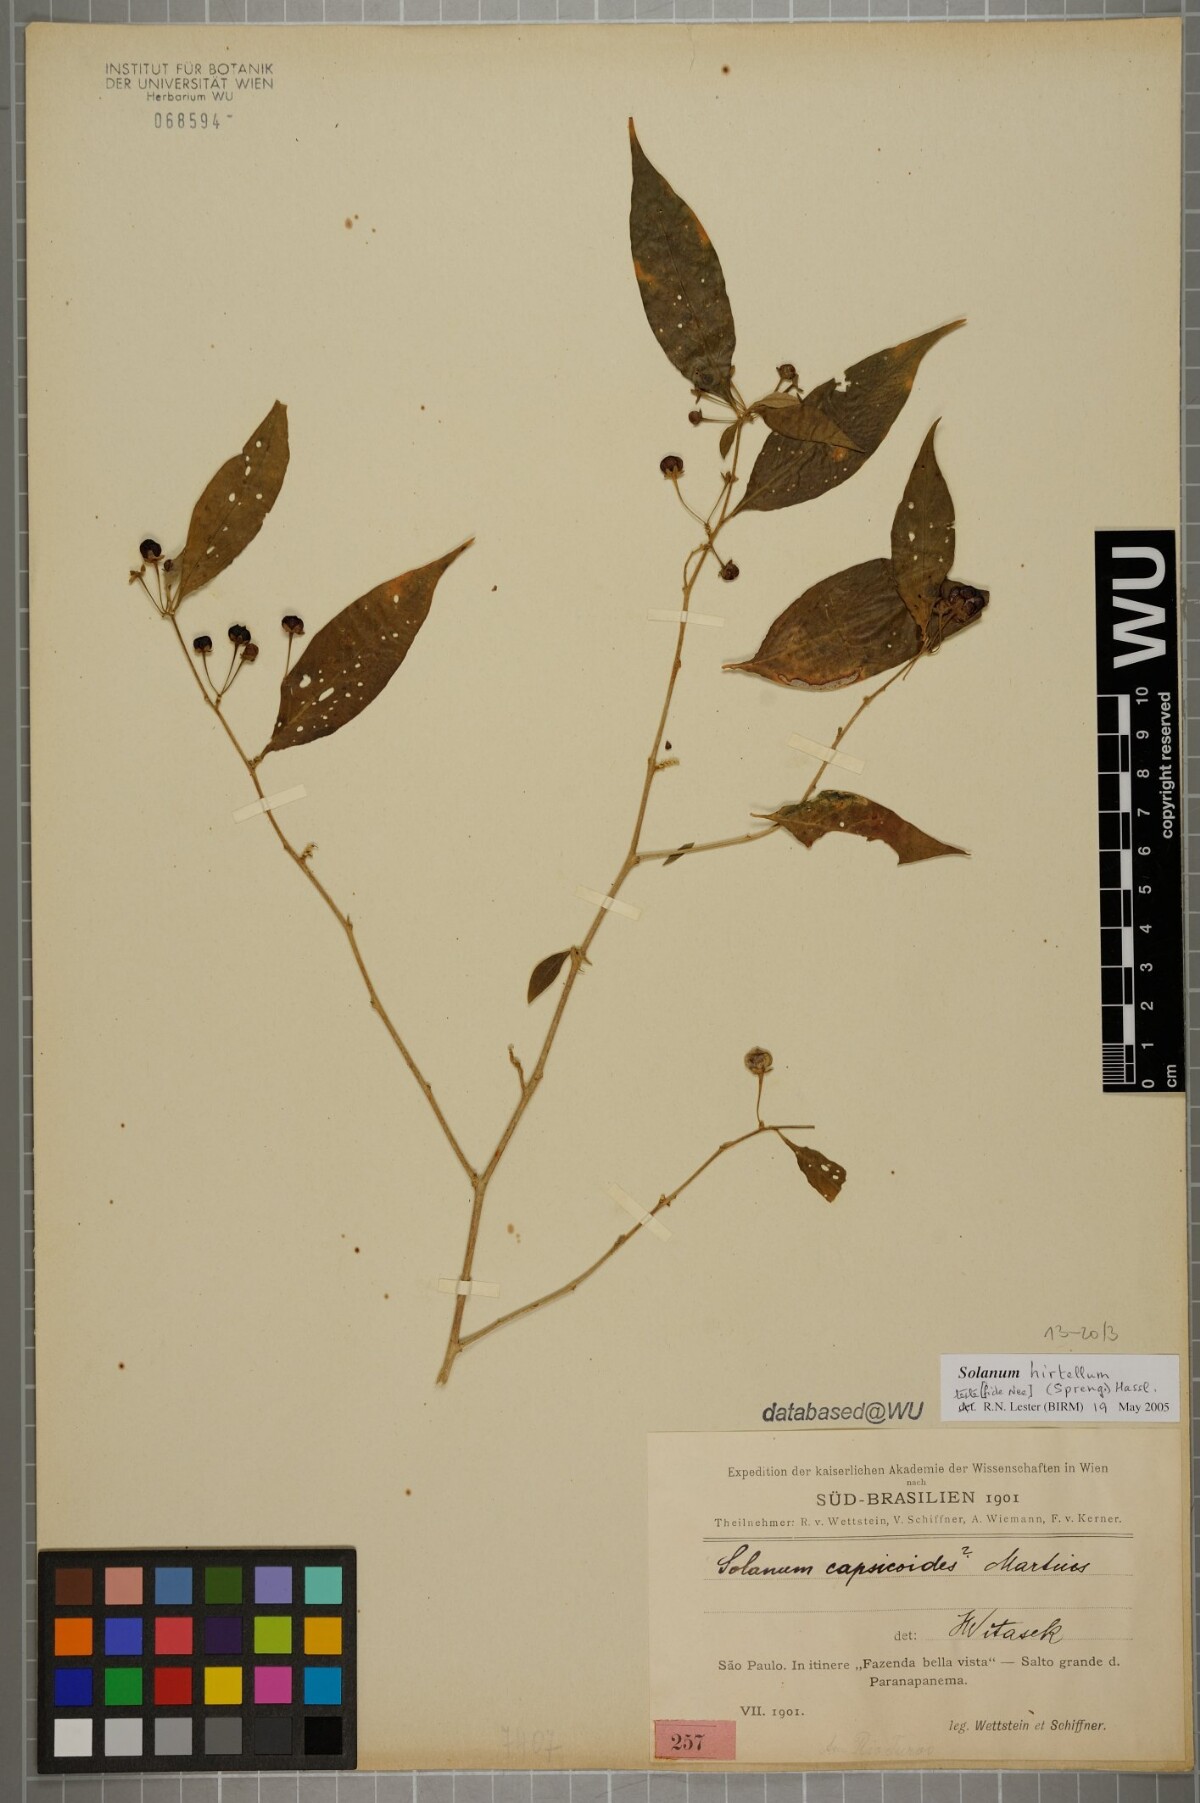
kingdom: Plantae
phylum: Tracheophyta
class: Magnoliopsida
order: Solanales
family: Solanaceae
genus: Solanum
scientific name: Solanum hirtellum
